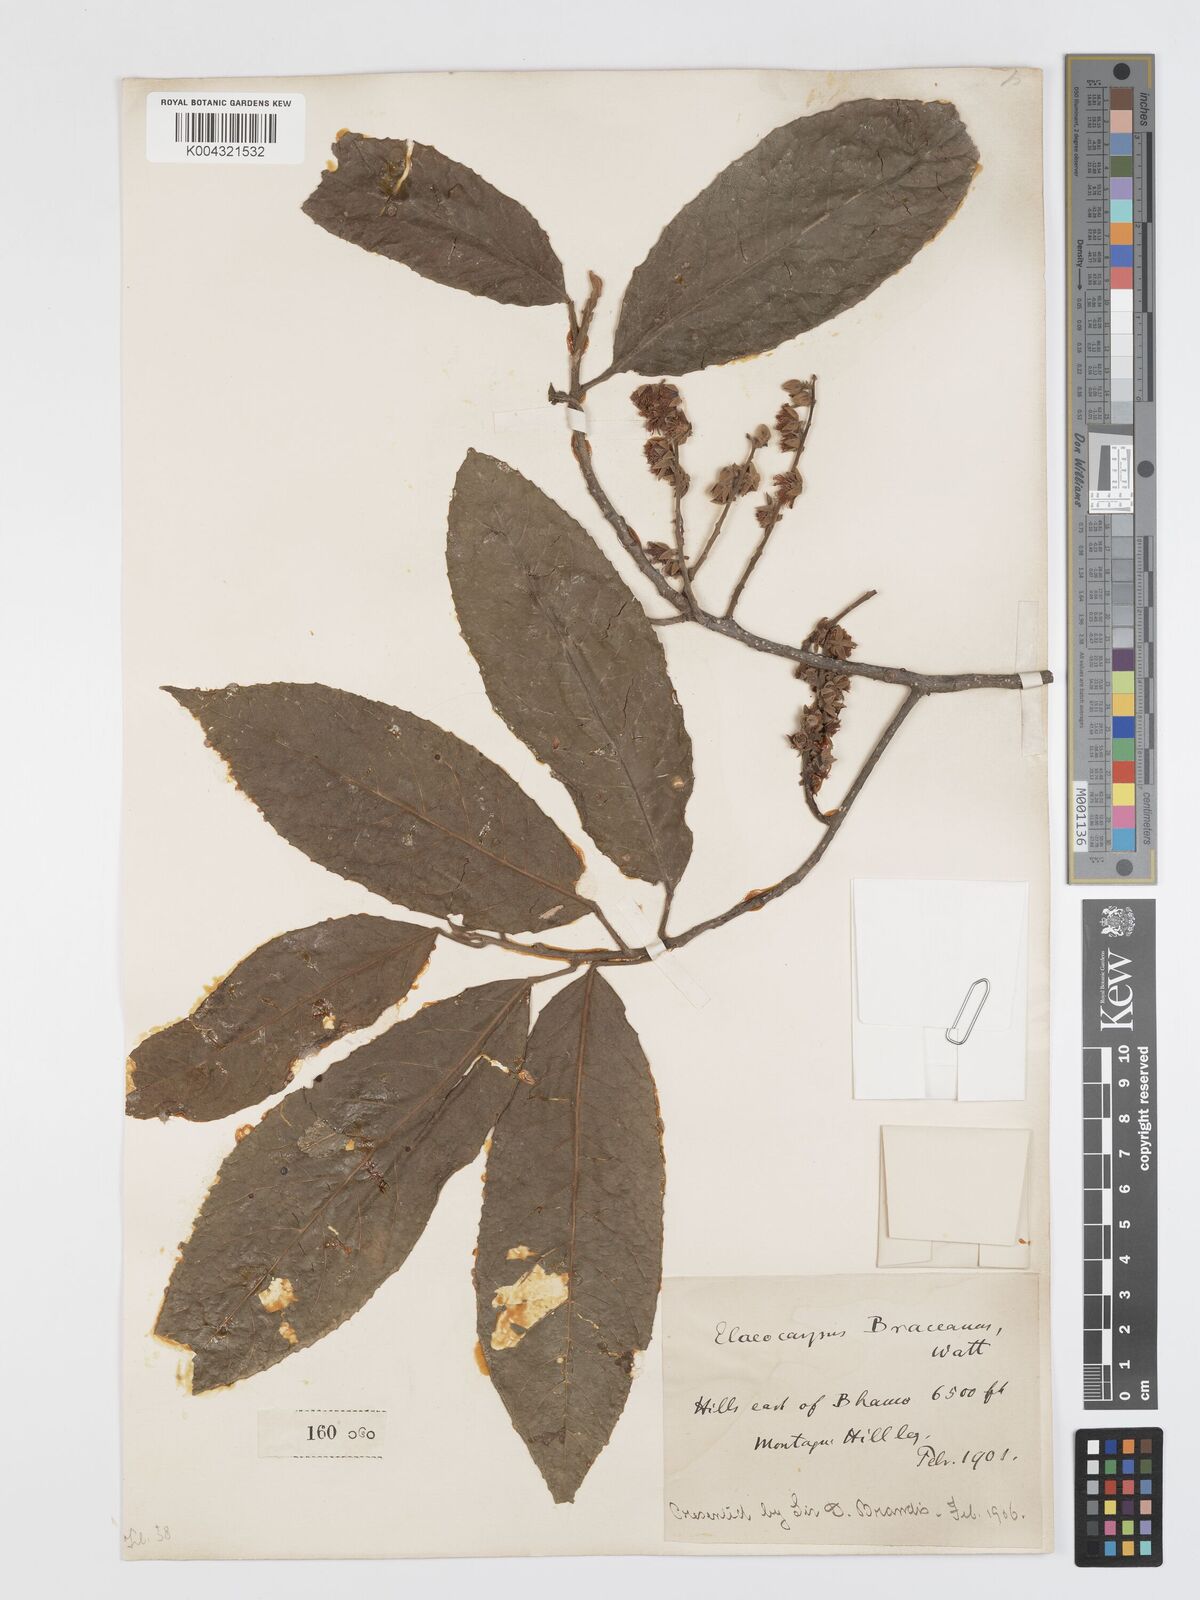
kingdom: Plantae
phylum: Tracheophyta
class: Magnoliopsida
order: Oxalidales
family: Elaeocarpaceae
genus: Elaeocarpus
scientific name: Elaeocarpus braceanus
